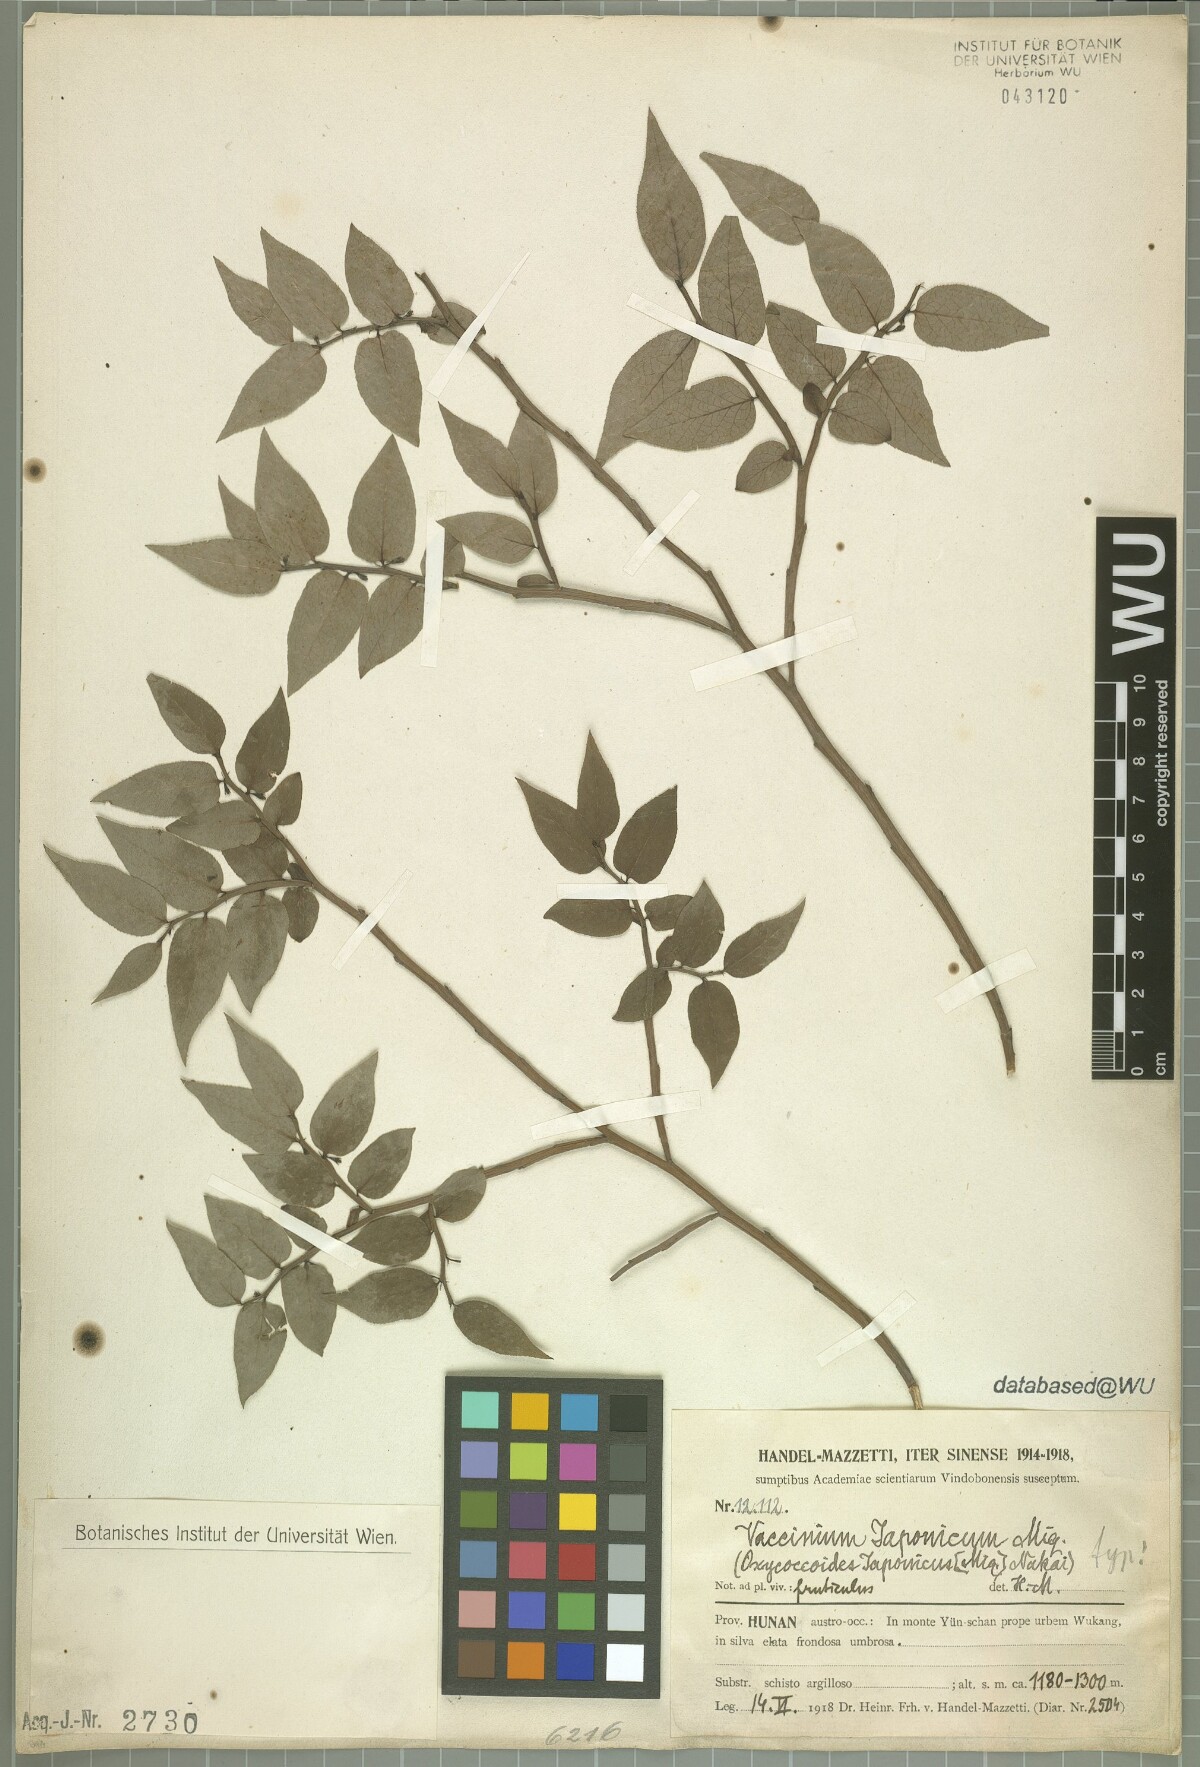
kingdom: Plantae
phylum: Tracheophyta
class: Magnoliopsida
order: Ericales
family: Ericaceae
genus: Vaccinium
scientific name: Vaccinium japonicum
